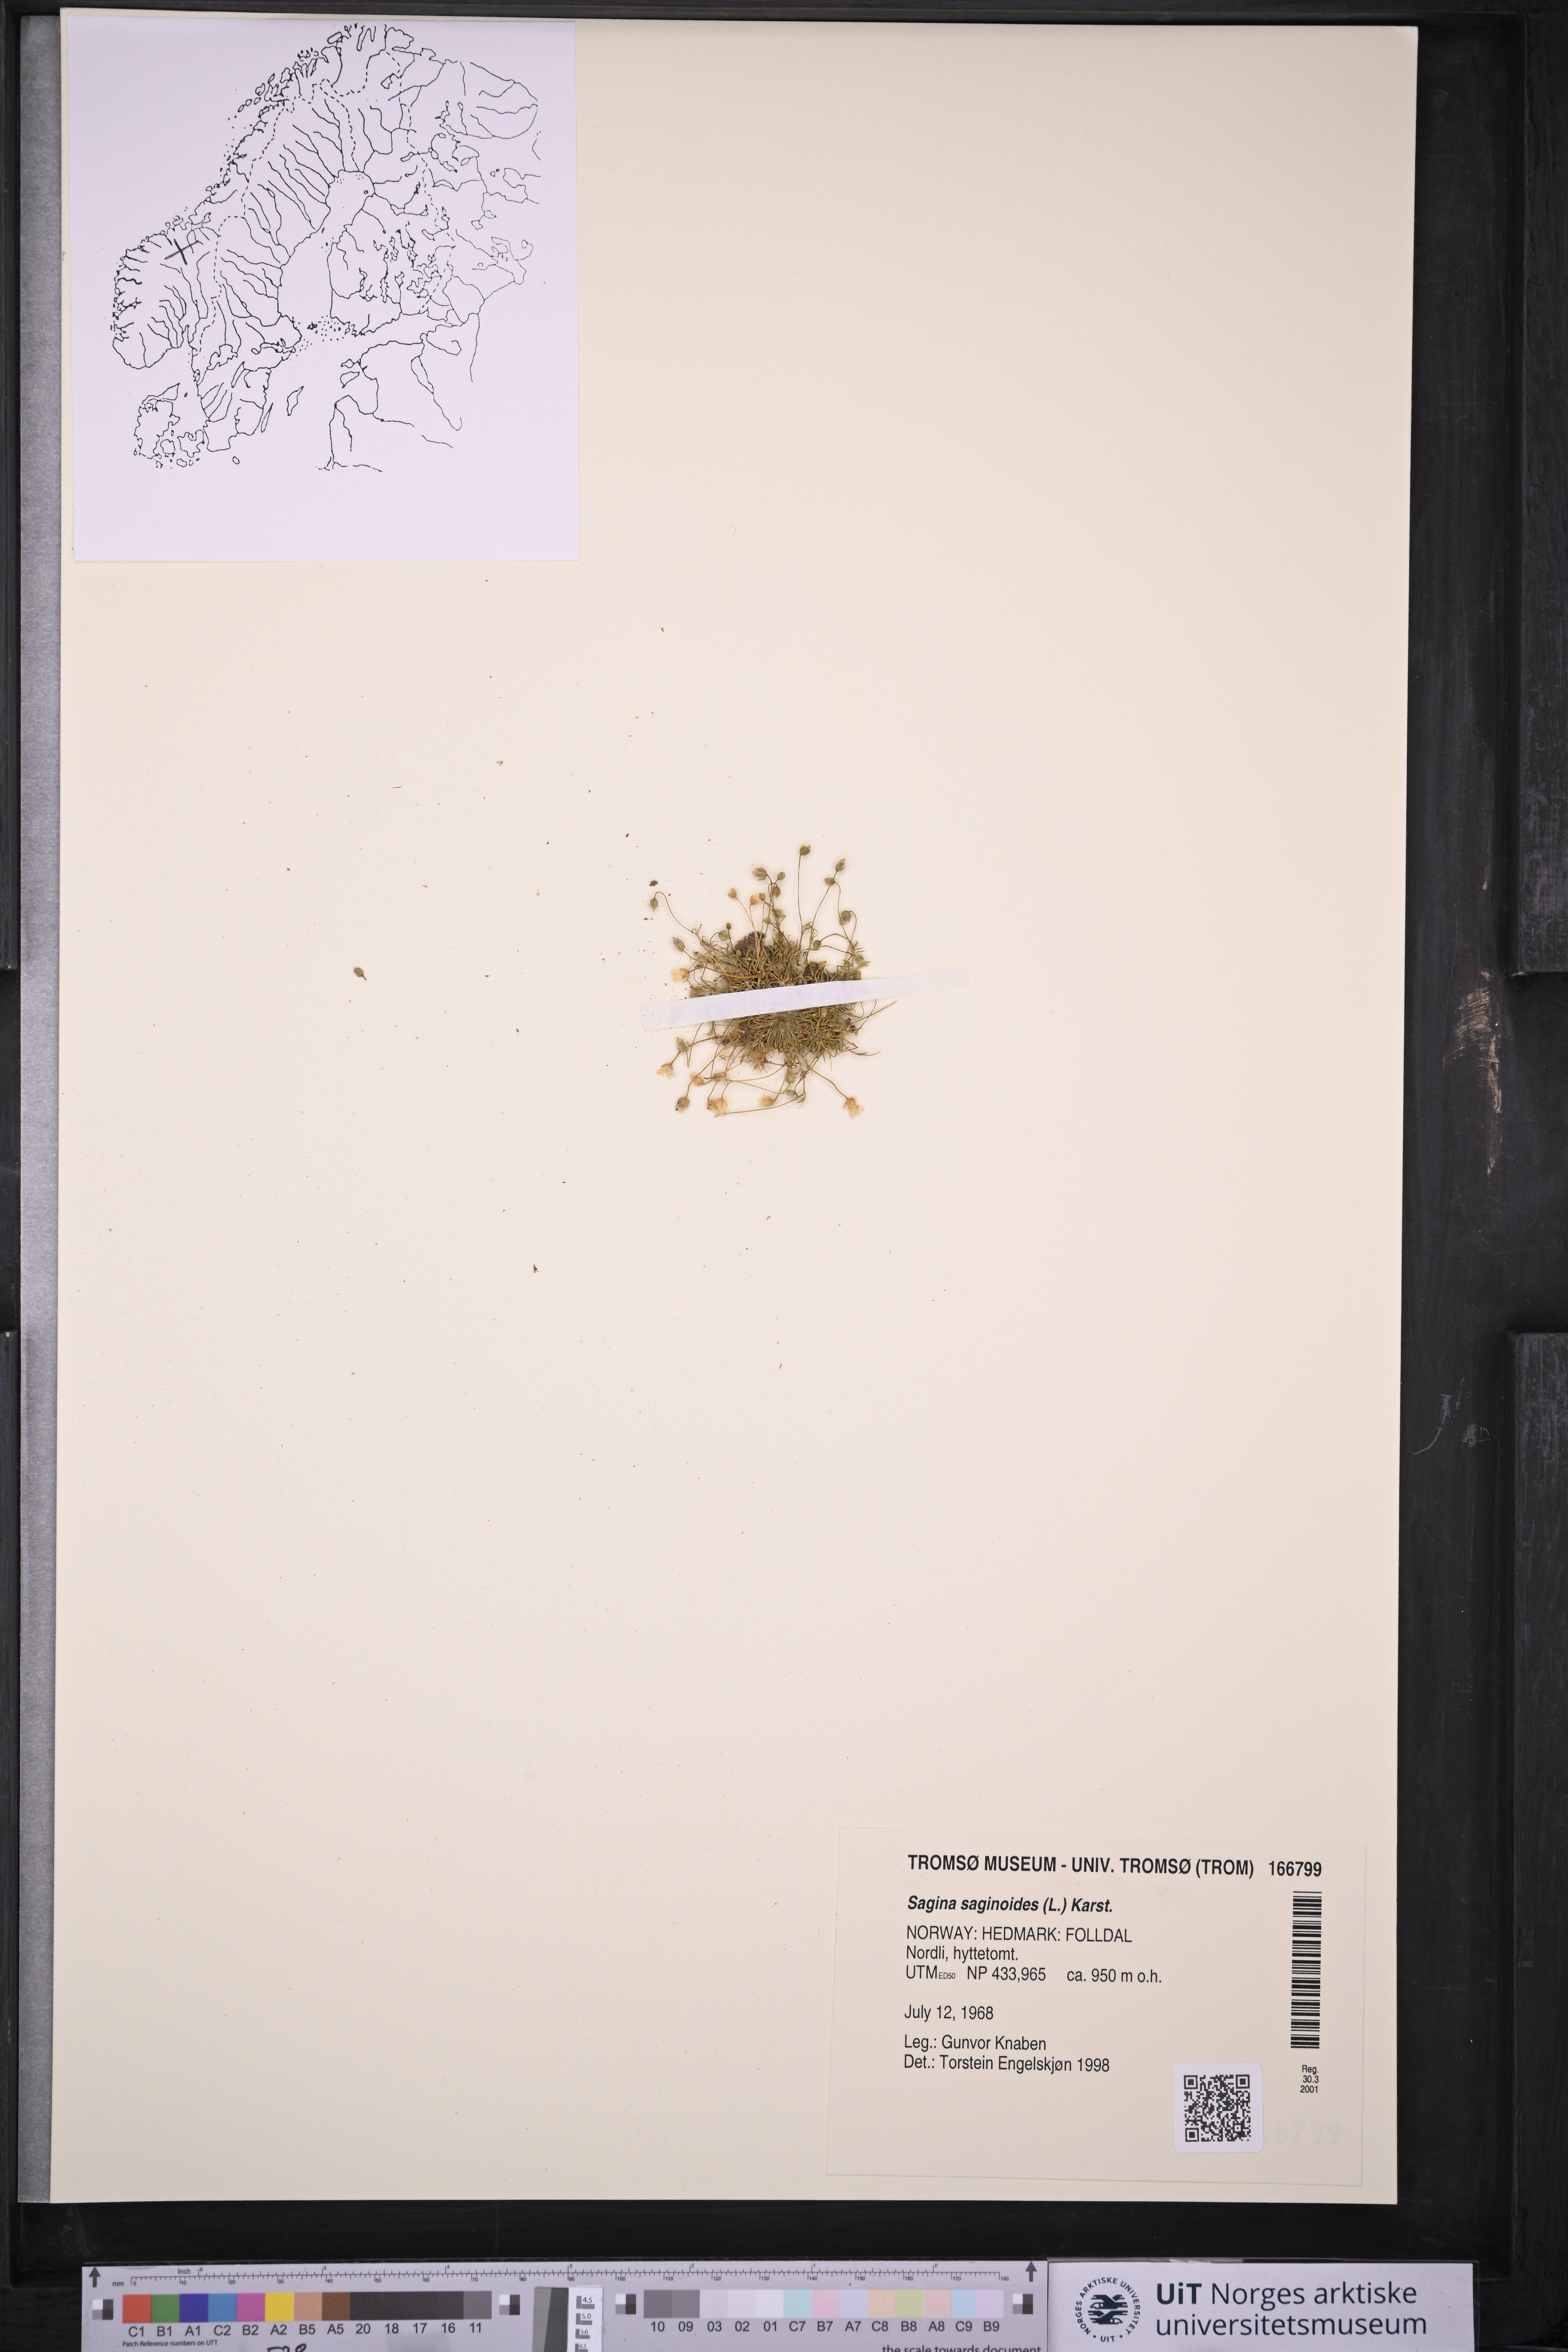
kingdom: Plantae
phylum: Tracheophyta
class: Magnoliopsida
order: Caryophyllales
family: Caryophyllaceae
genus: Sagina
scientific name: Sagina saginoides
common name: Alpine pearlwort
